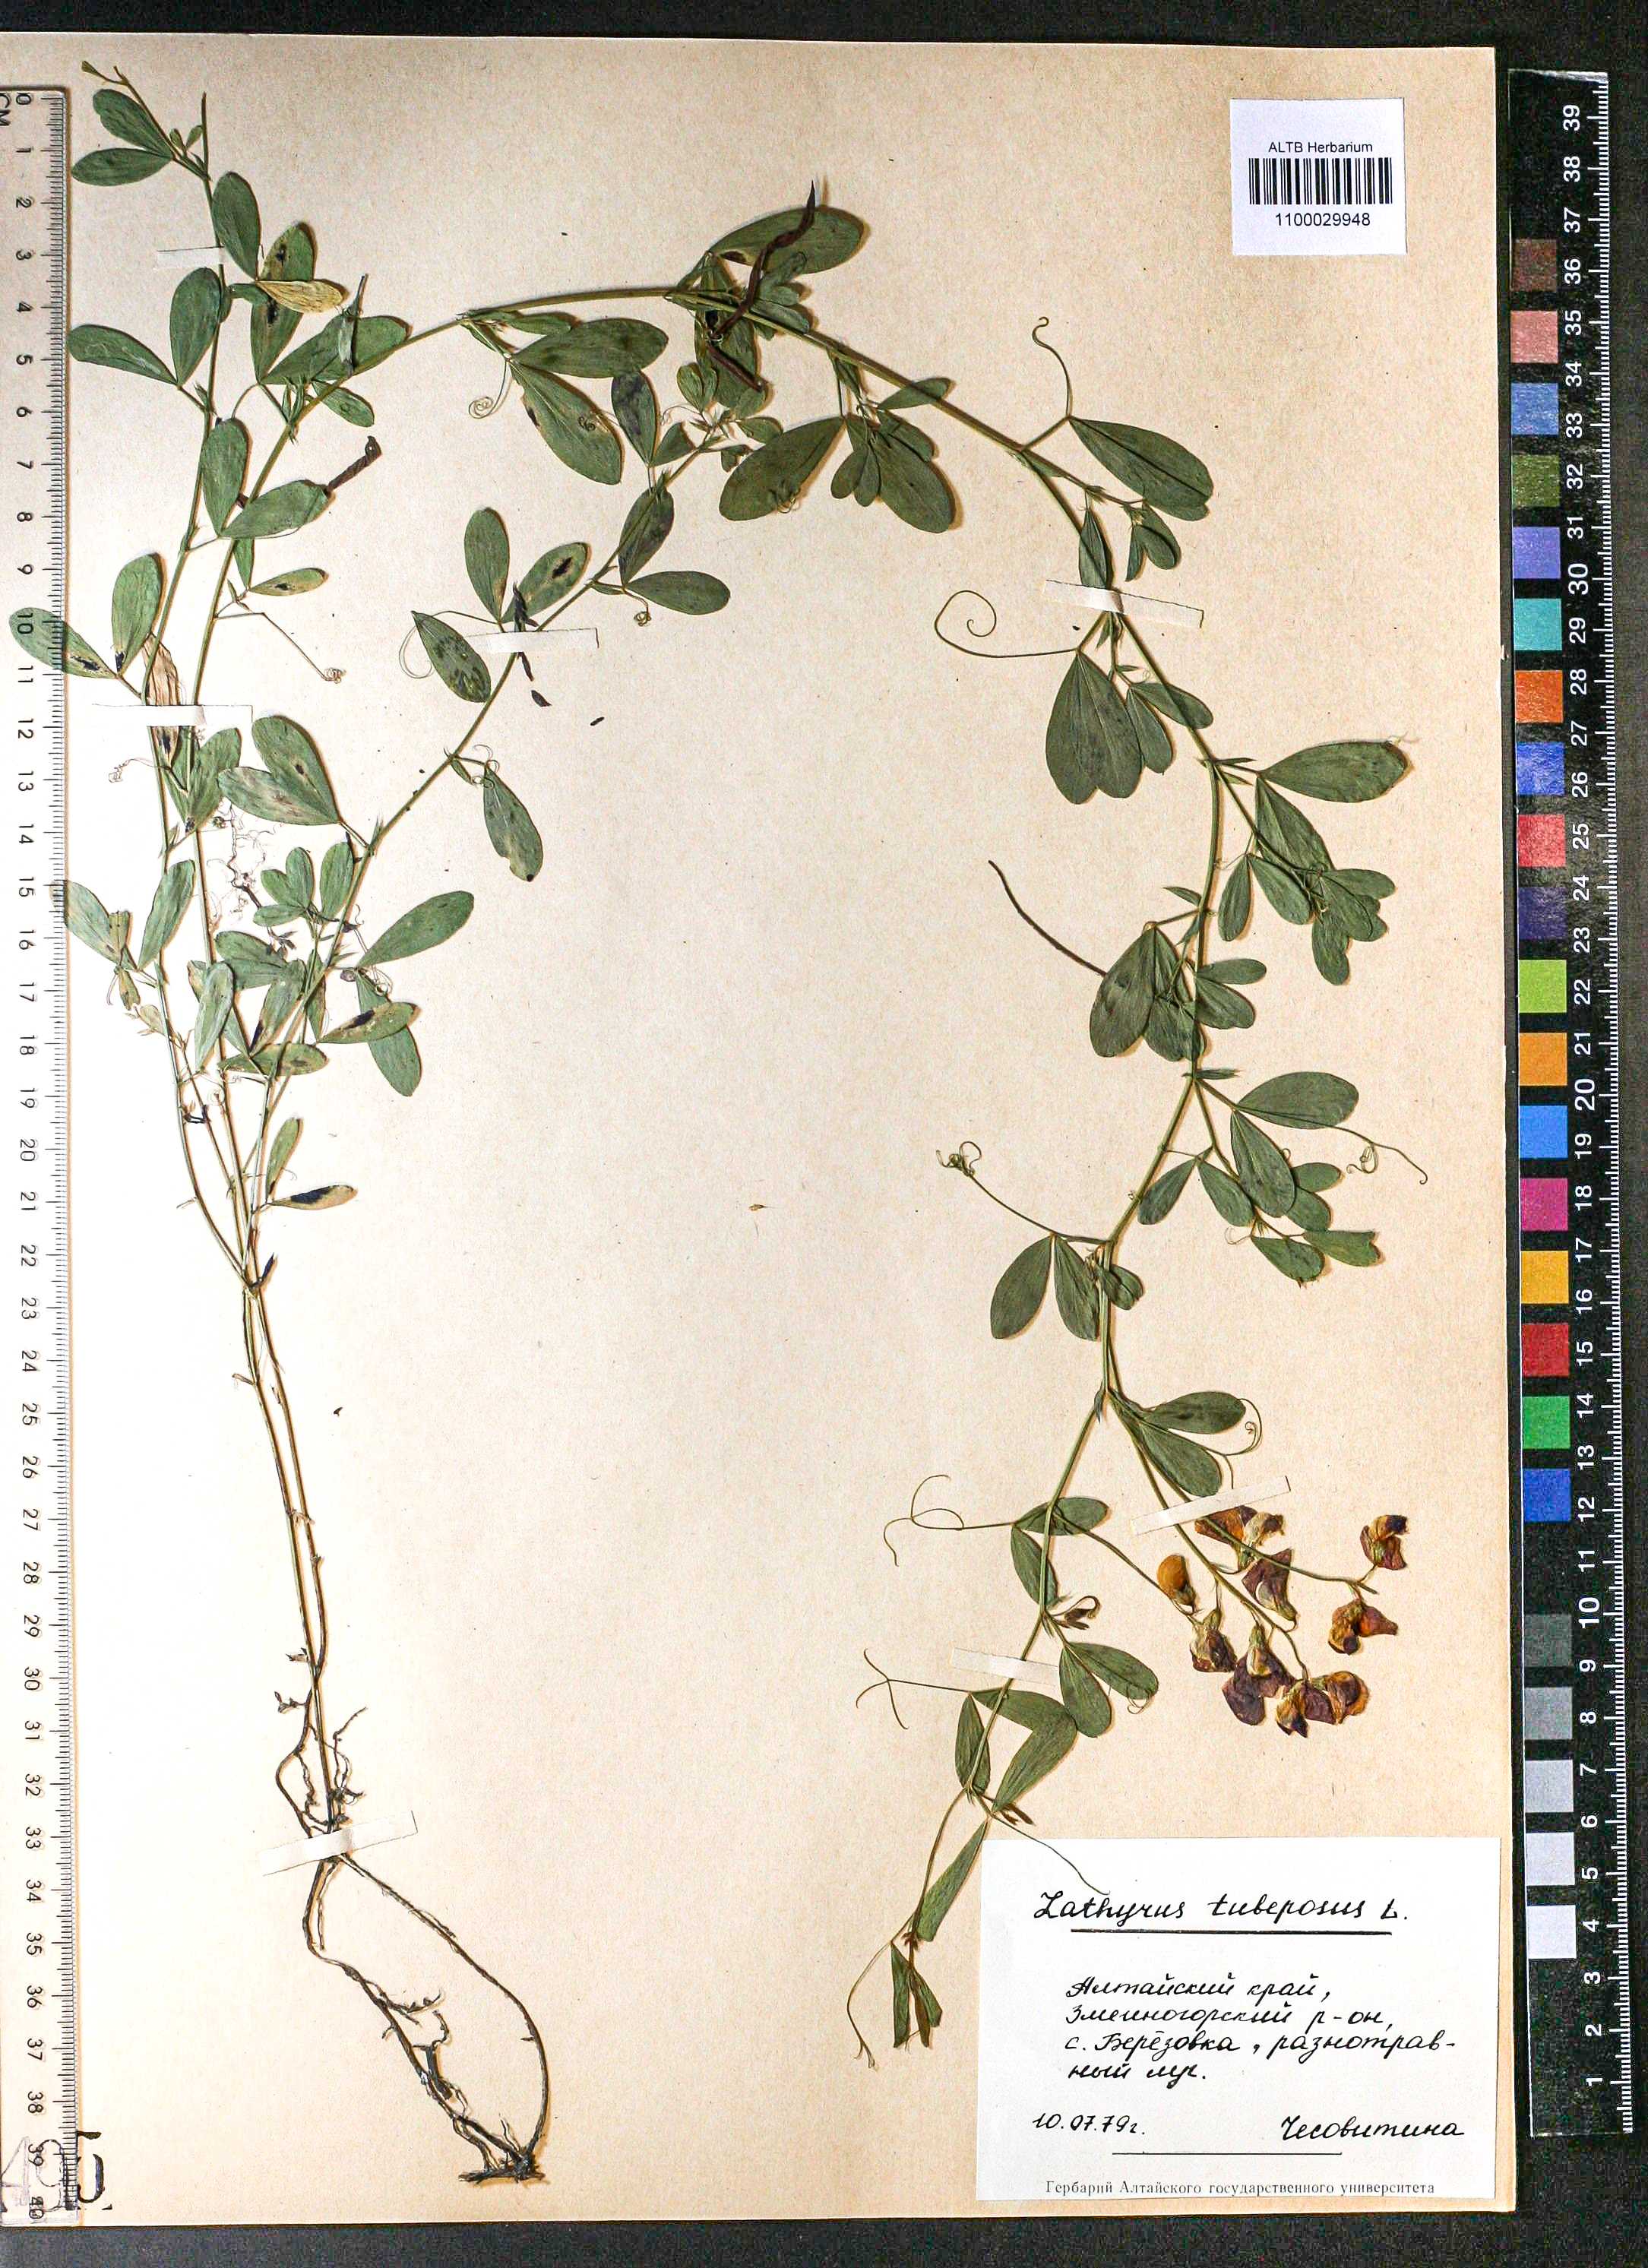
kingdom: Plantae
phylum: Tracheophyta
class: Magnoliopsida
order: Fabales
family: Fabaceae
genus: Lathyrus
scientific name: Lathyrus tuberosus
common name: Tuberous pea
